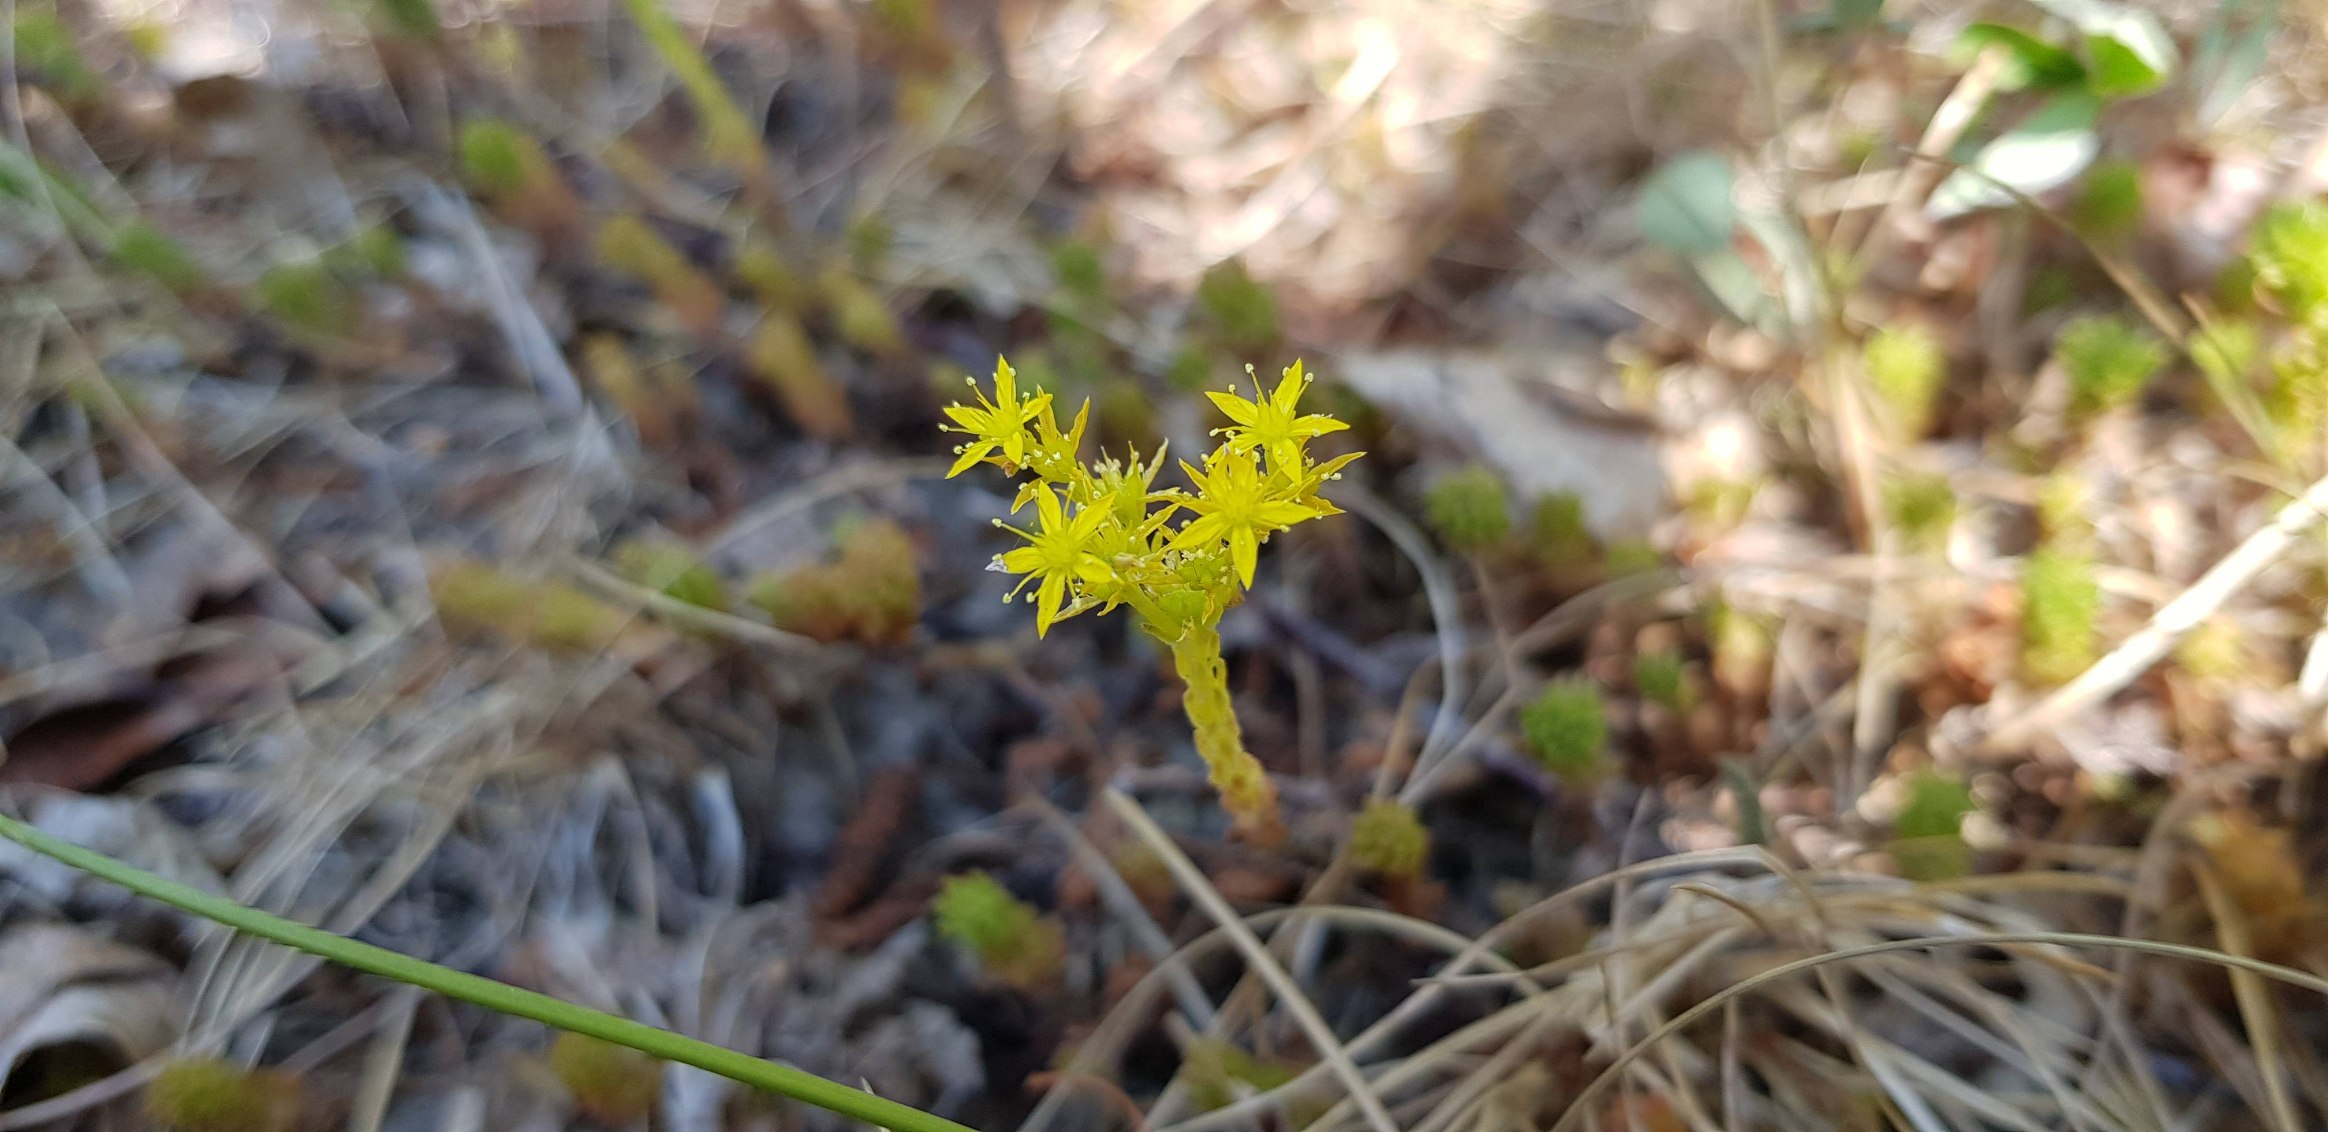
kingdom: Plantae
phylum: Tracheophyta
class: Magnoliopsida
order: Saxifragales
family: Crassulaceae
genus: Sedum
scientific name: Sedum sexangulare
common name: Seksradet stenurt
